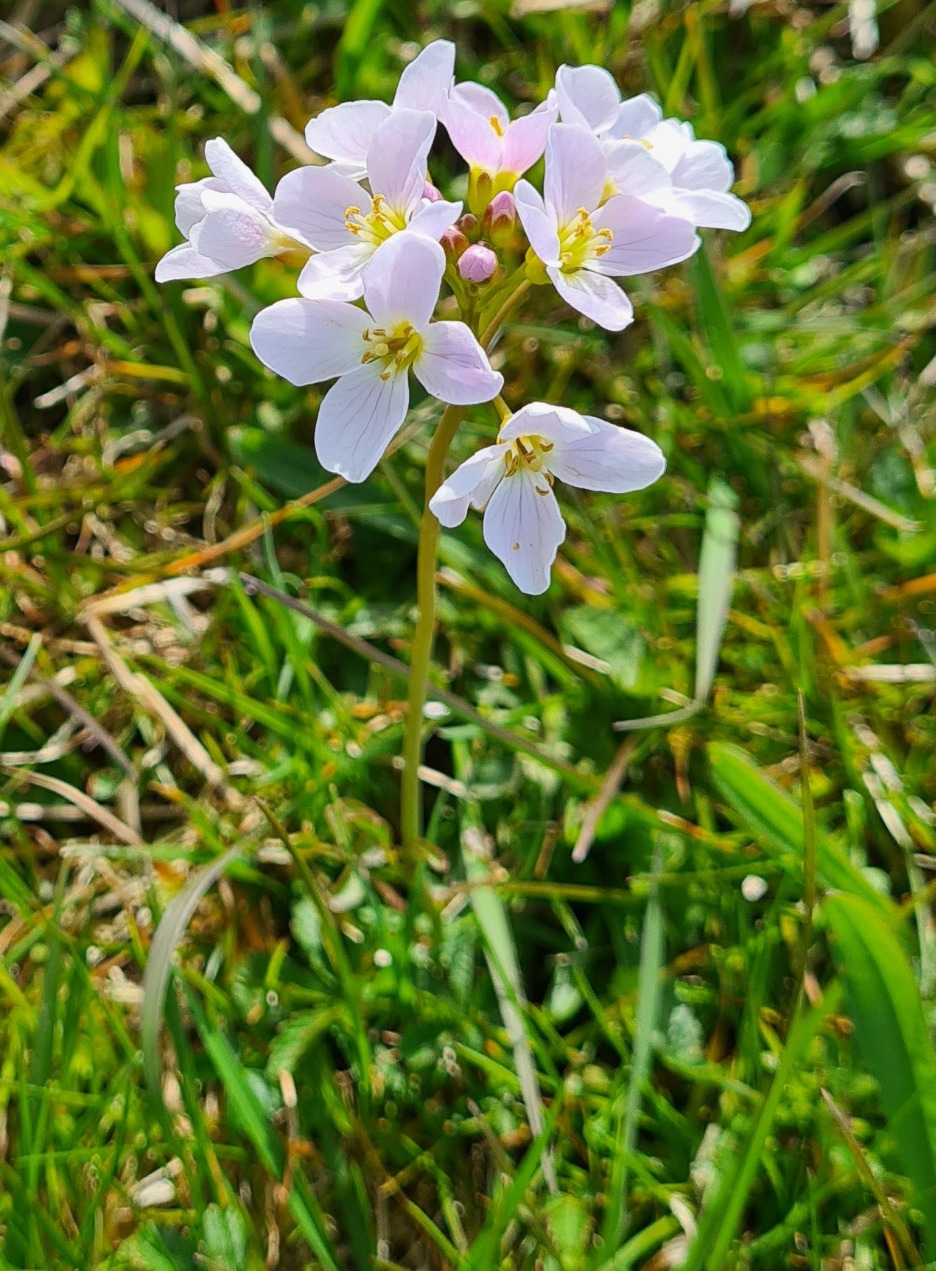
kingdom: Plantae
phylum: Tracheophyta
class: Magnoliopsida
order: Brassicales
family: Brassicaceae
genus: Cardamine
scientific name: Cardamine pratensis
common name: Engkarse
